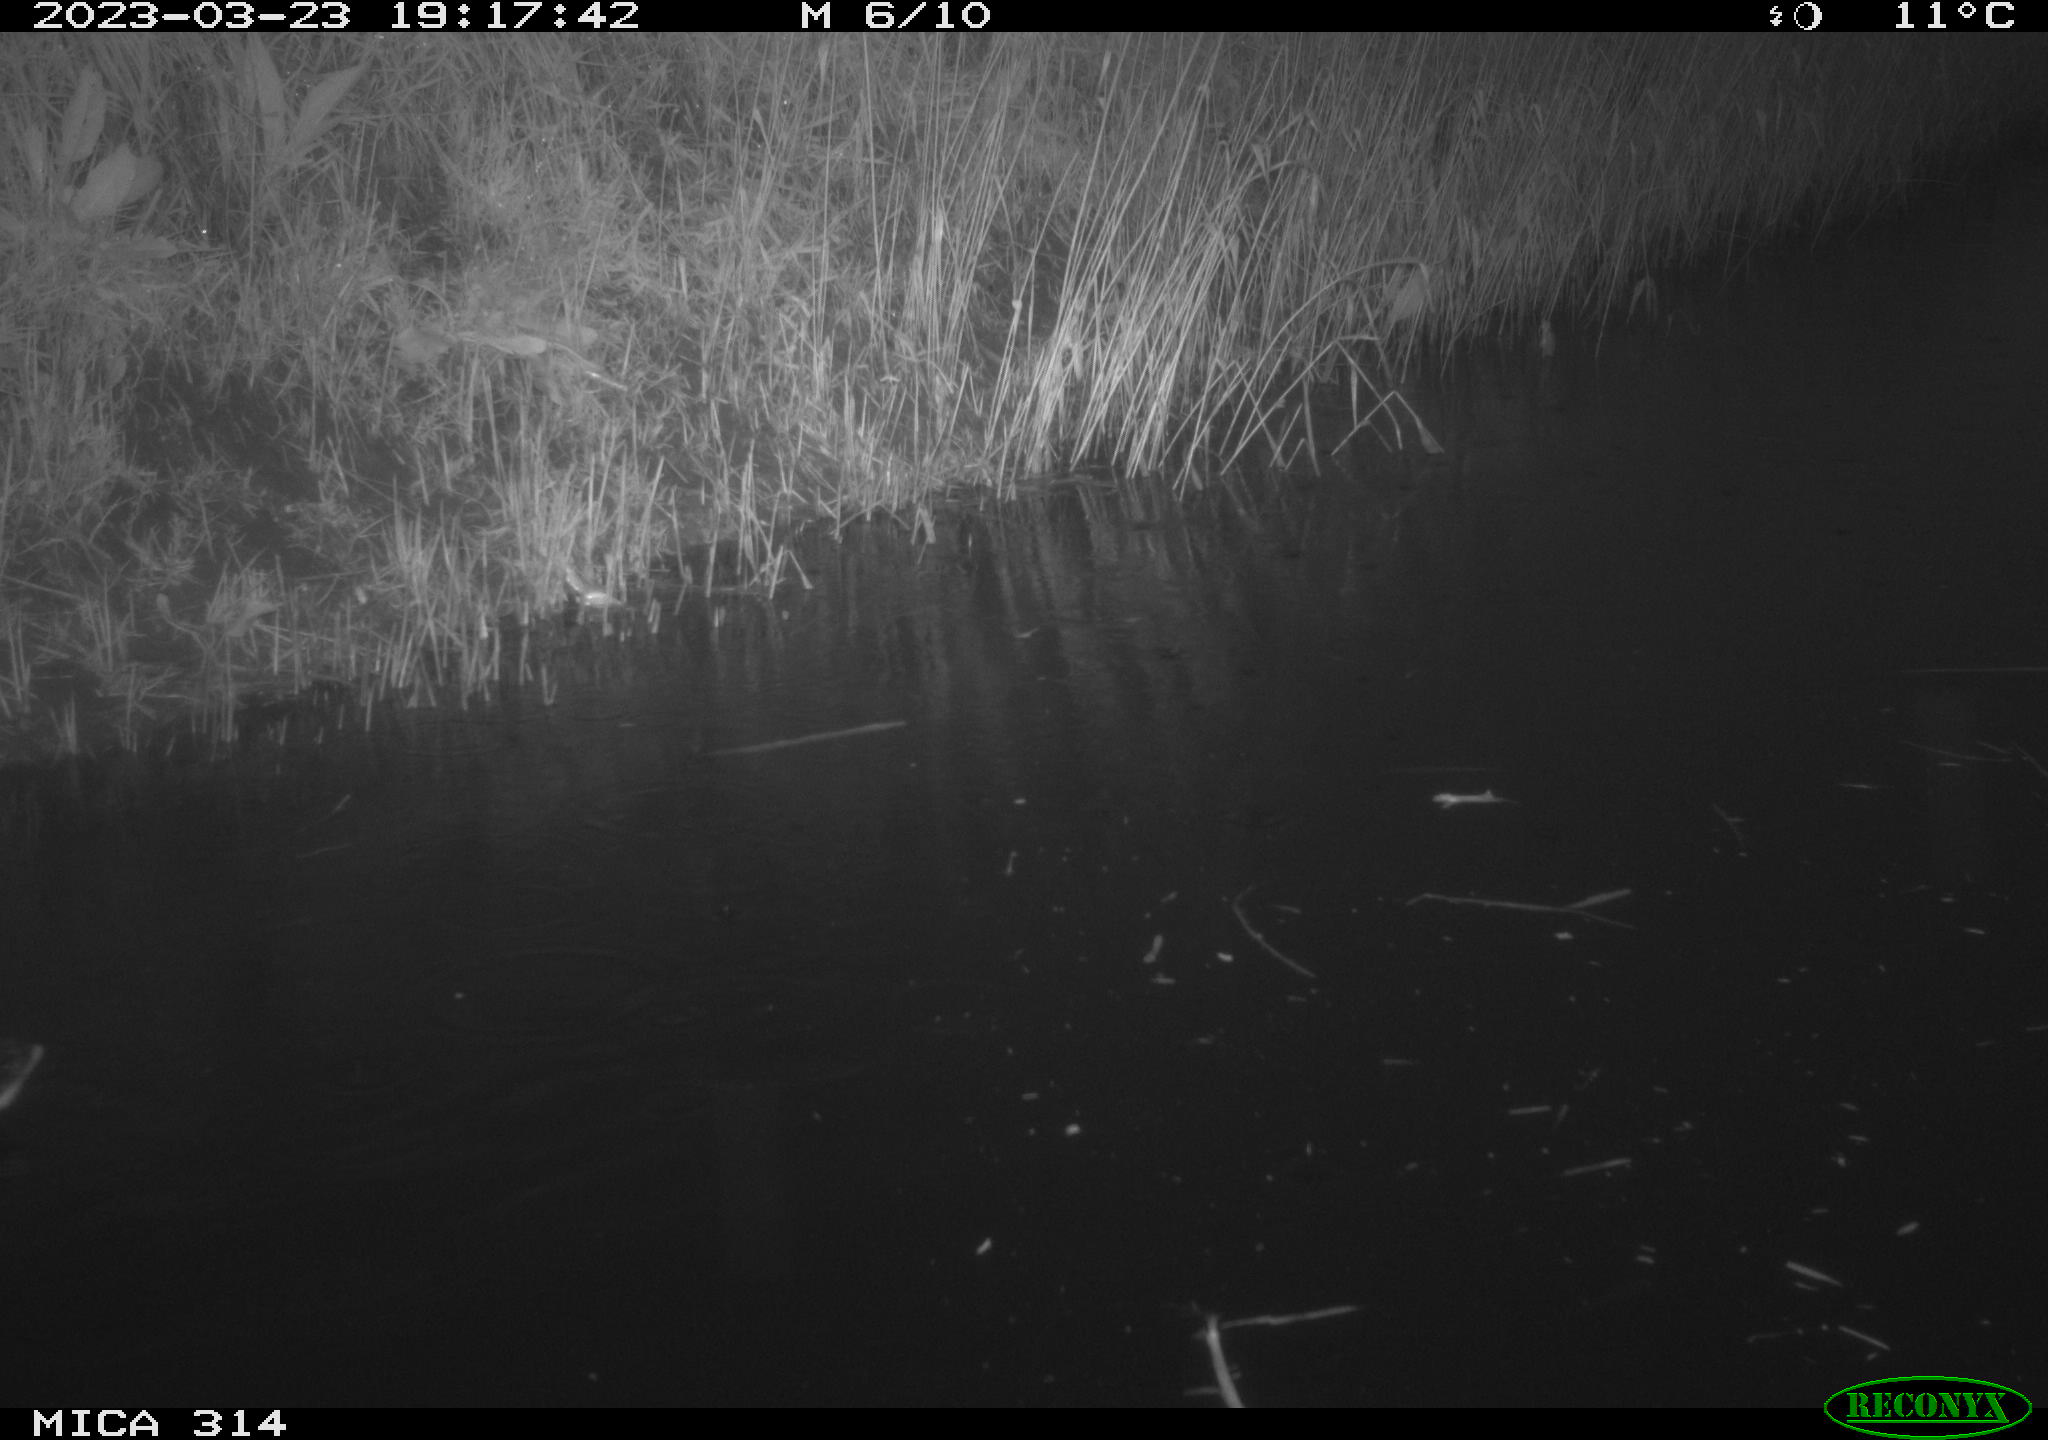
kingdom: Animalia
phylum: Chordata
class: Aves
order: Anseriformes
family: Anatidae
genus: Anas
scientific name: Anas
